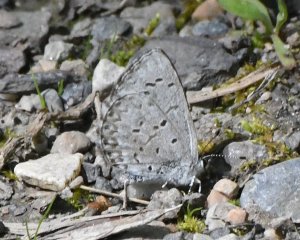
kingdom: Animalia
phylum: Arthropoda
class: Insecta
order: Lepidoptera
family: Lycaenidae
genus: Celastrina
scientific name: Celastrina lucia
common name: Northern Spring Azure
